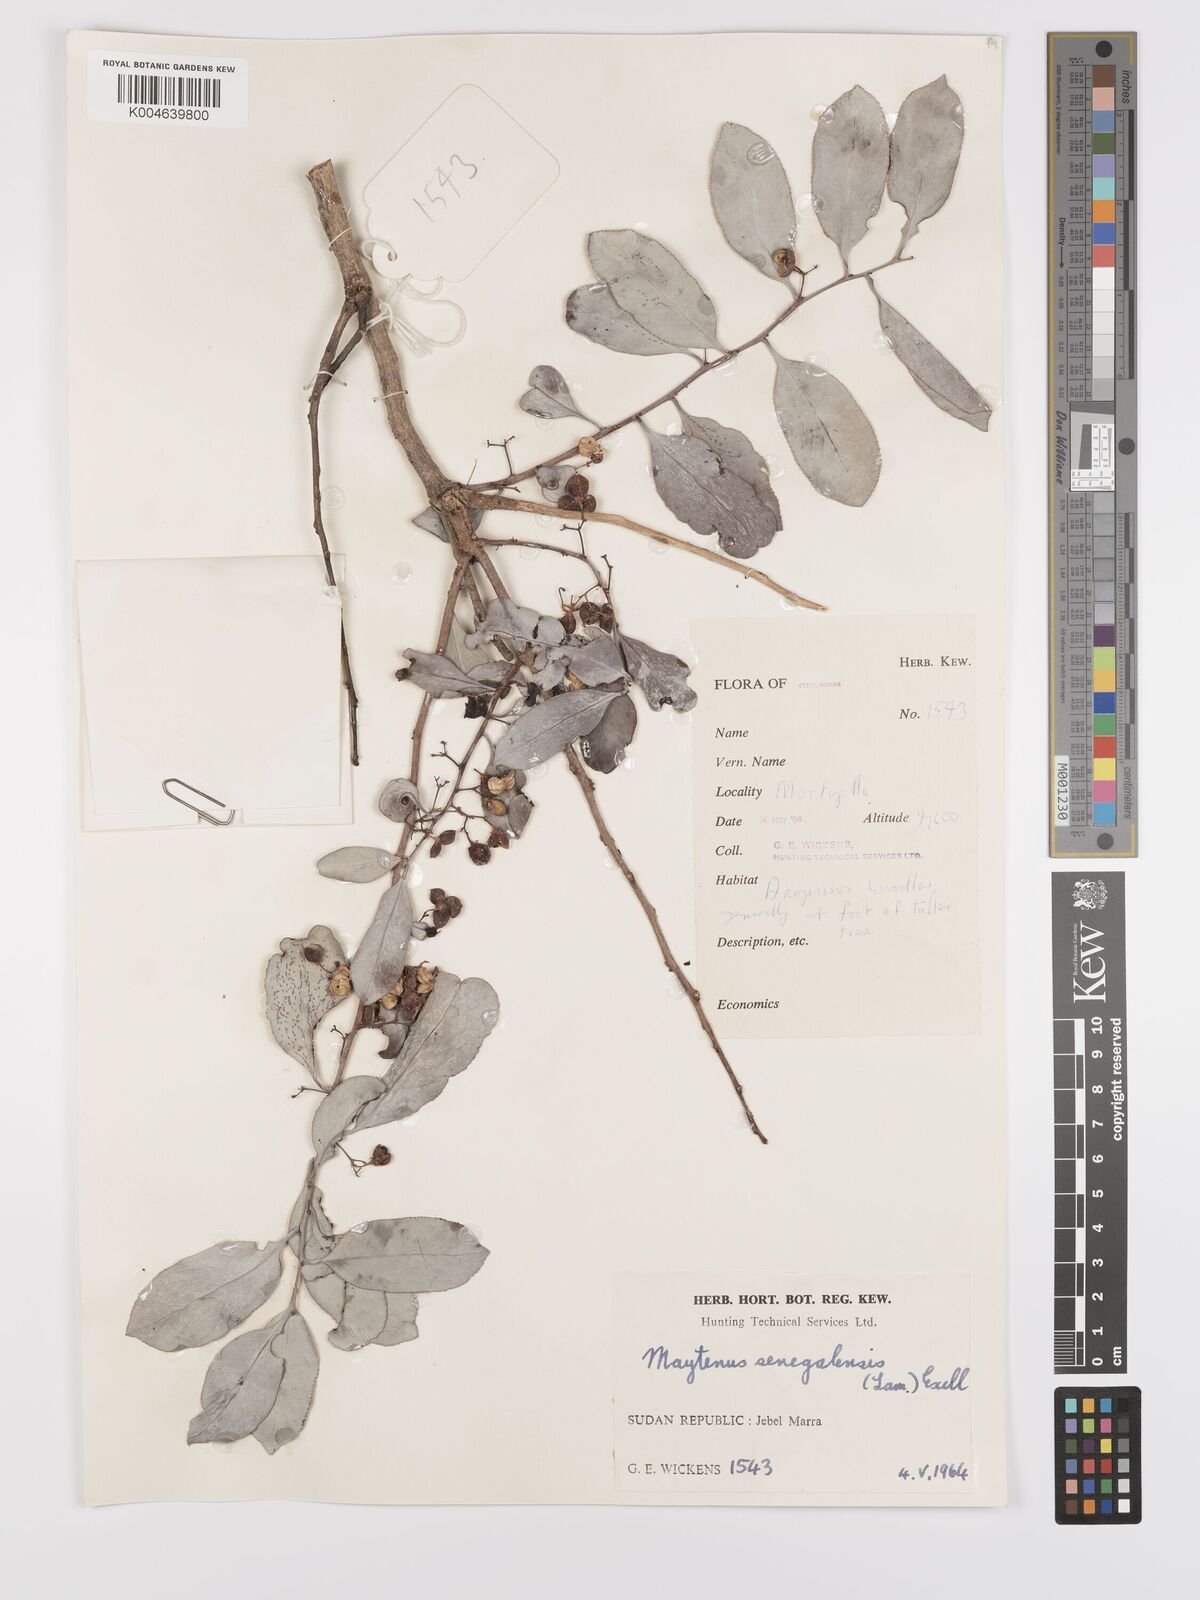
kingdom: Plantae
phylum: Tracheophyta
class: Magnoliopsida
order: Celastrales
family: Celastraceae
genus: Gymnosporia
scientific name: Gymnosporia senegalensis
